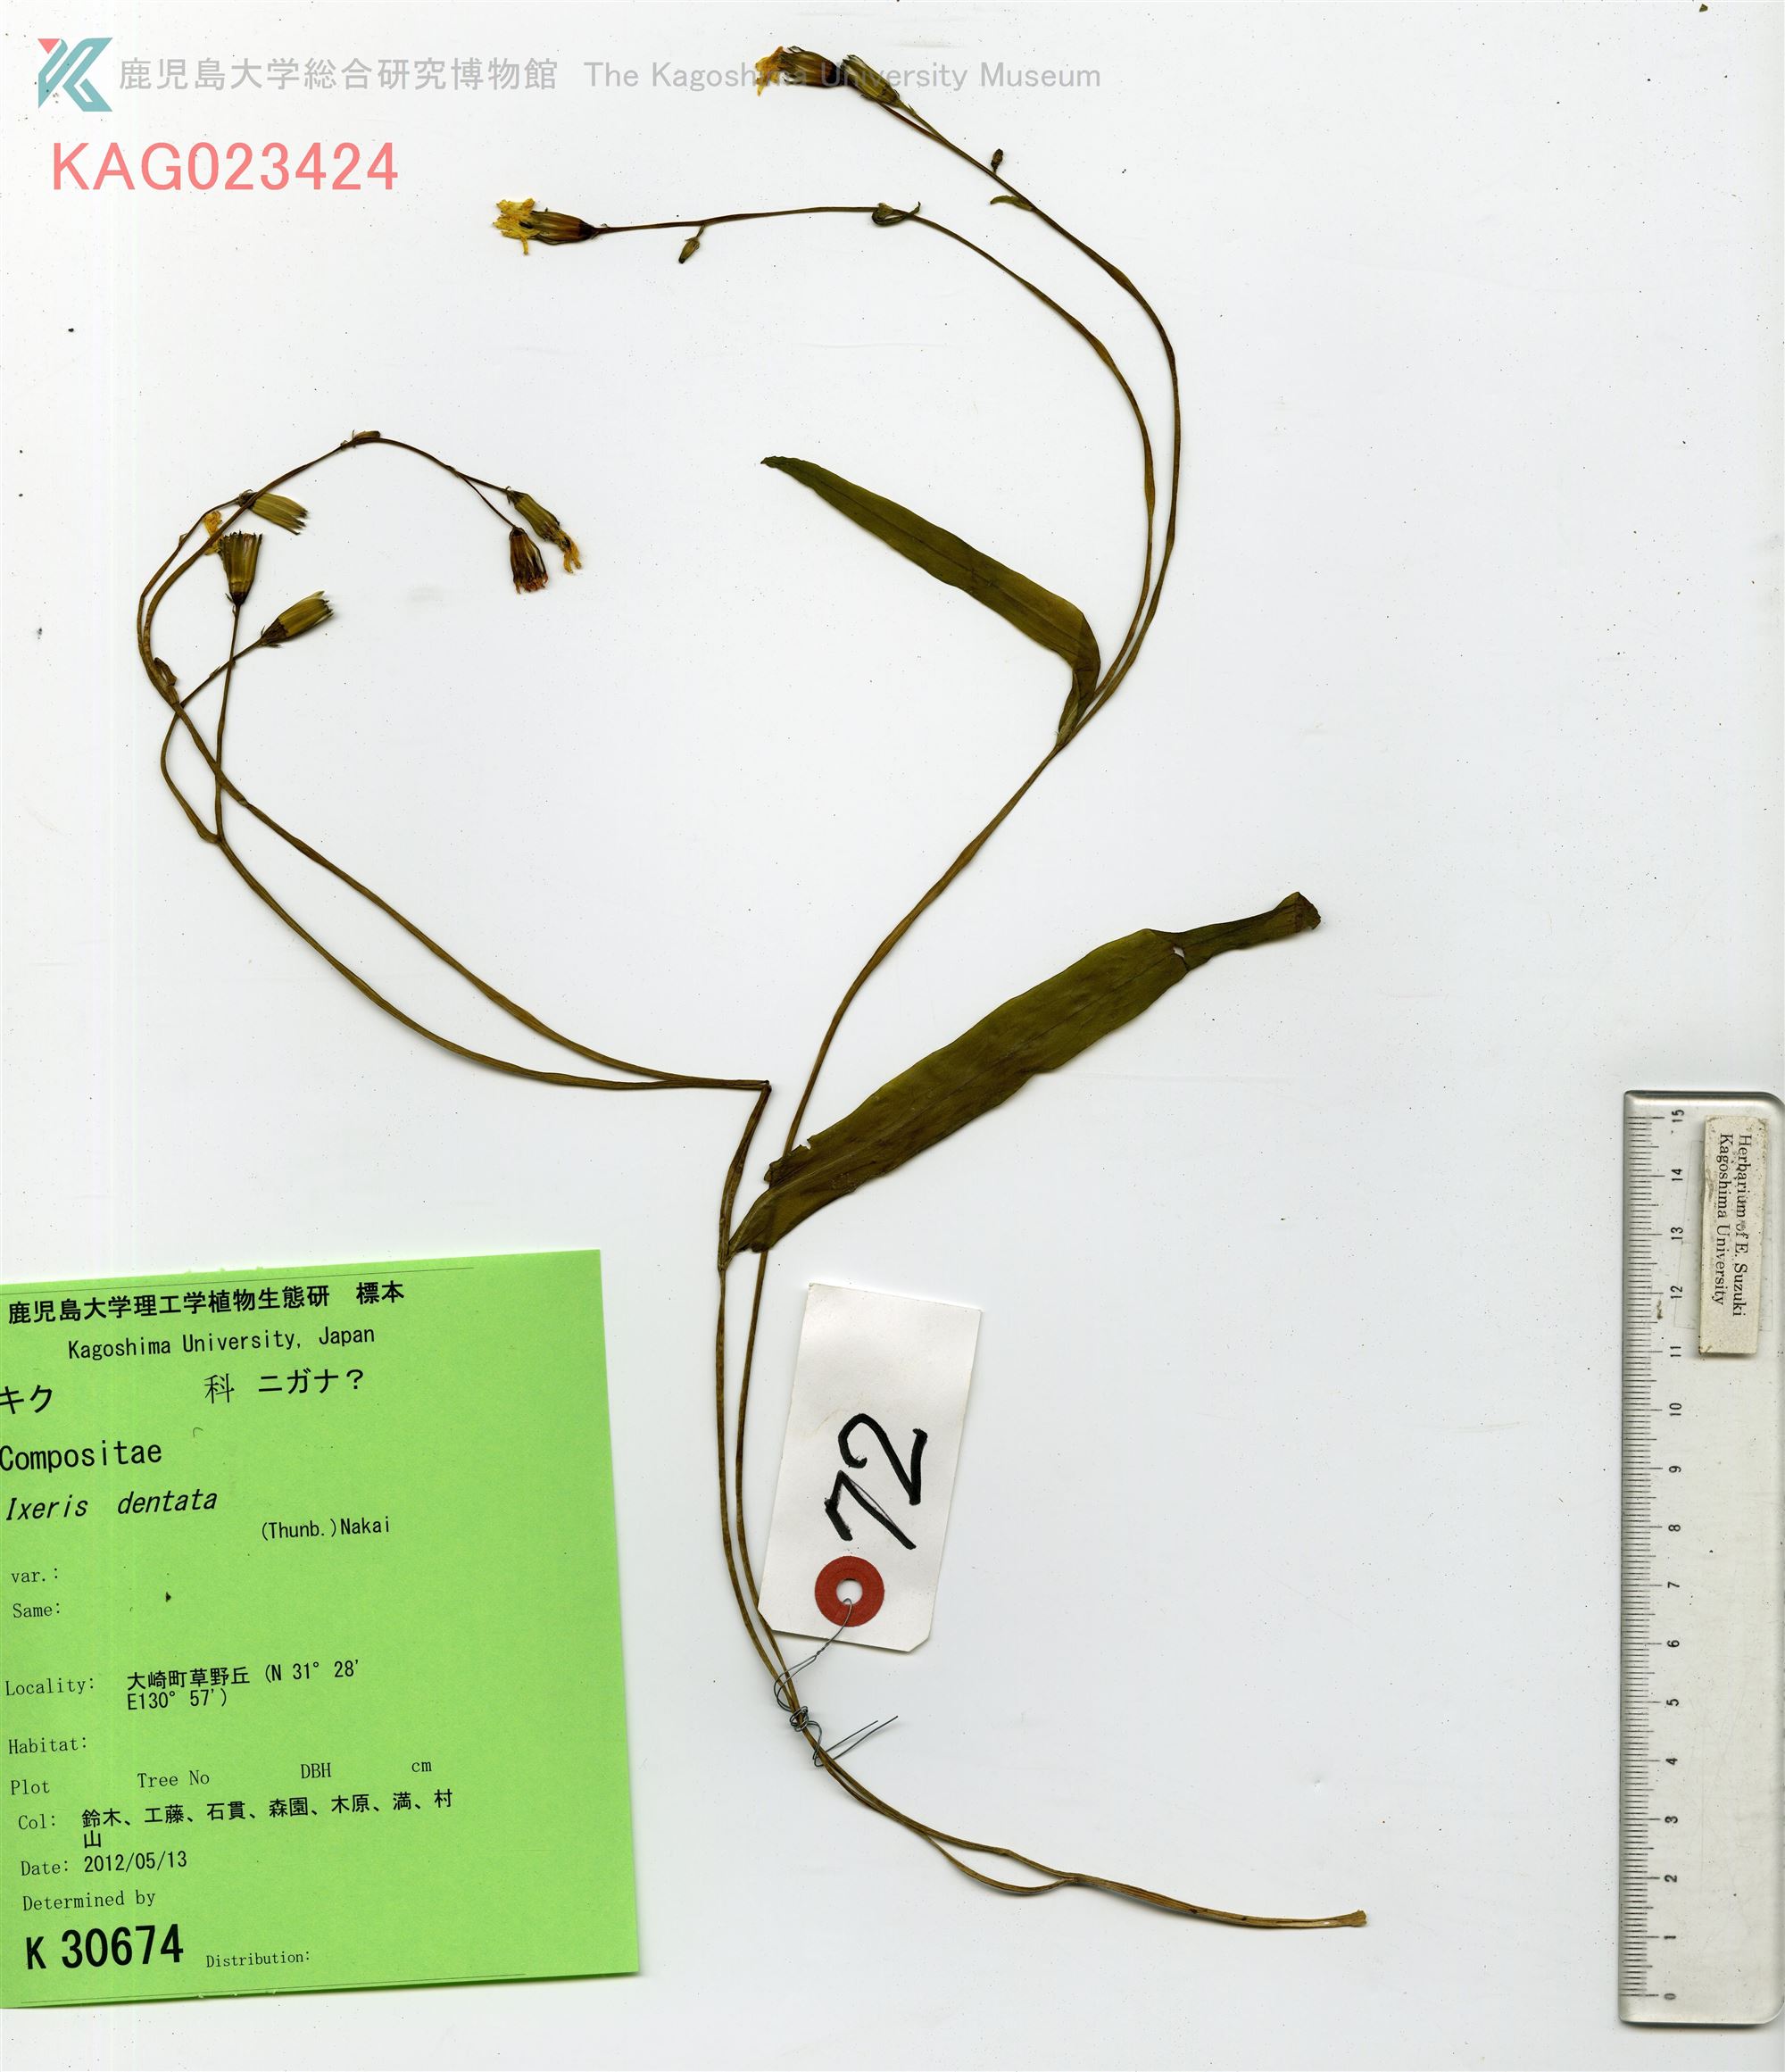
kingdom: Plantae
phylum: Tracheophyta
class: Magnoliopsida
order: Asterales
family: Asteraceae
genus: Ixeridium
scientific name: Ixeridium dentatum
